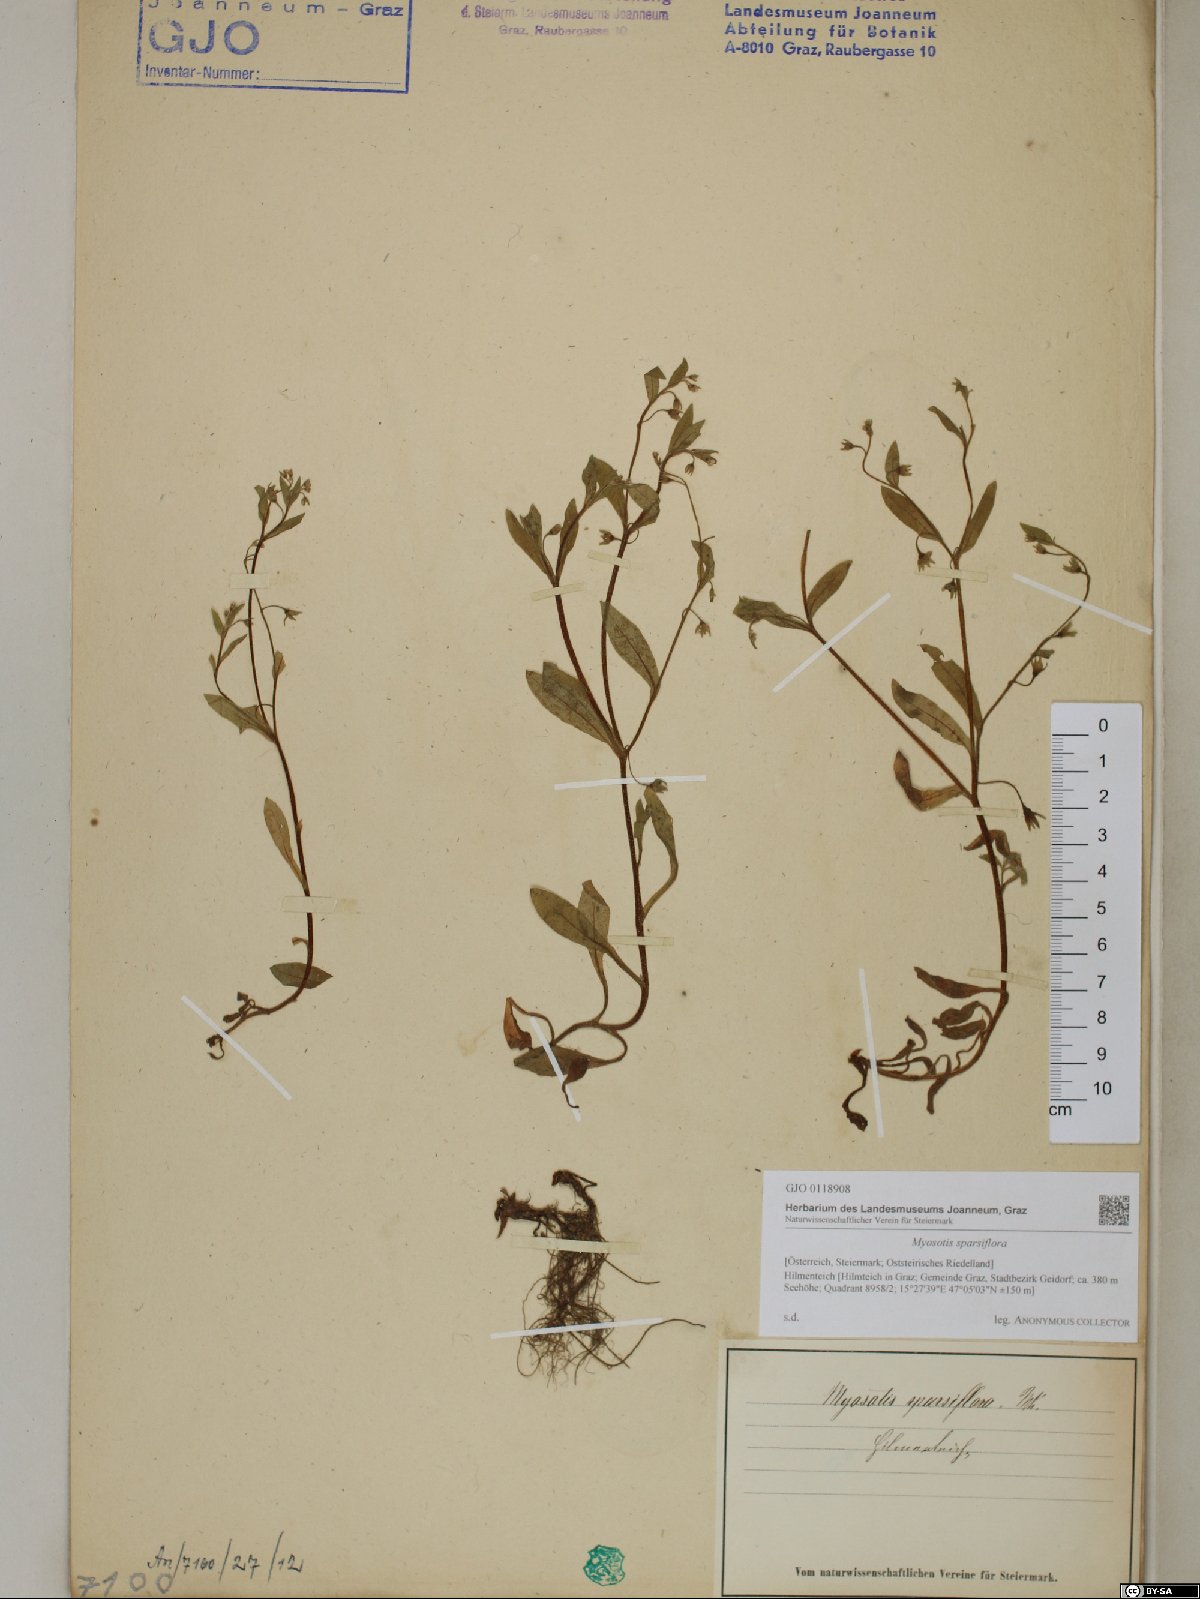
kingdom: Plantae
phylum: Tracheophyta
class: Magnoliopsida
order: Boraginales
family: Boraginaceae
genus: Myosotis
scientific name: Myosotis sparsiflora
